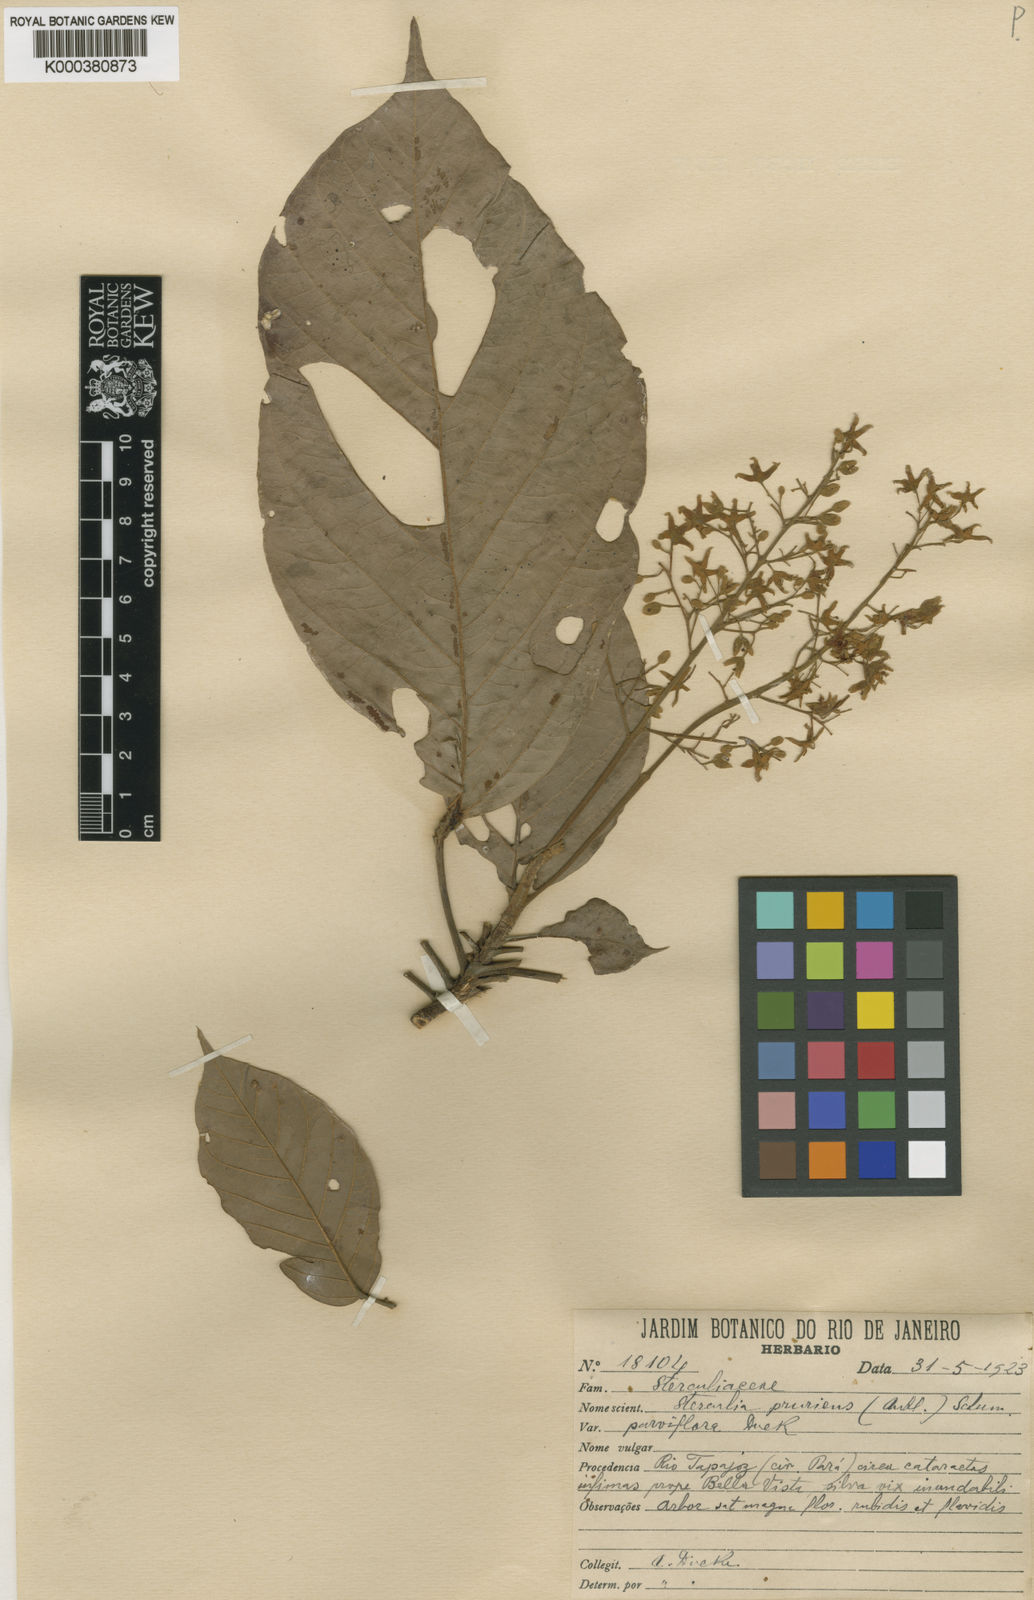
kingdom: Plantae
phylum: Tracheophyta
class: Magnoliopsida
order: Malvales
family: Malvaceae
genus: Sterculia
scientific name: Sterculia kayae
